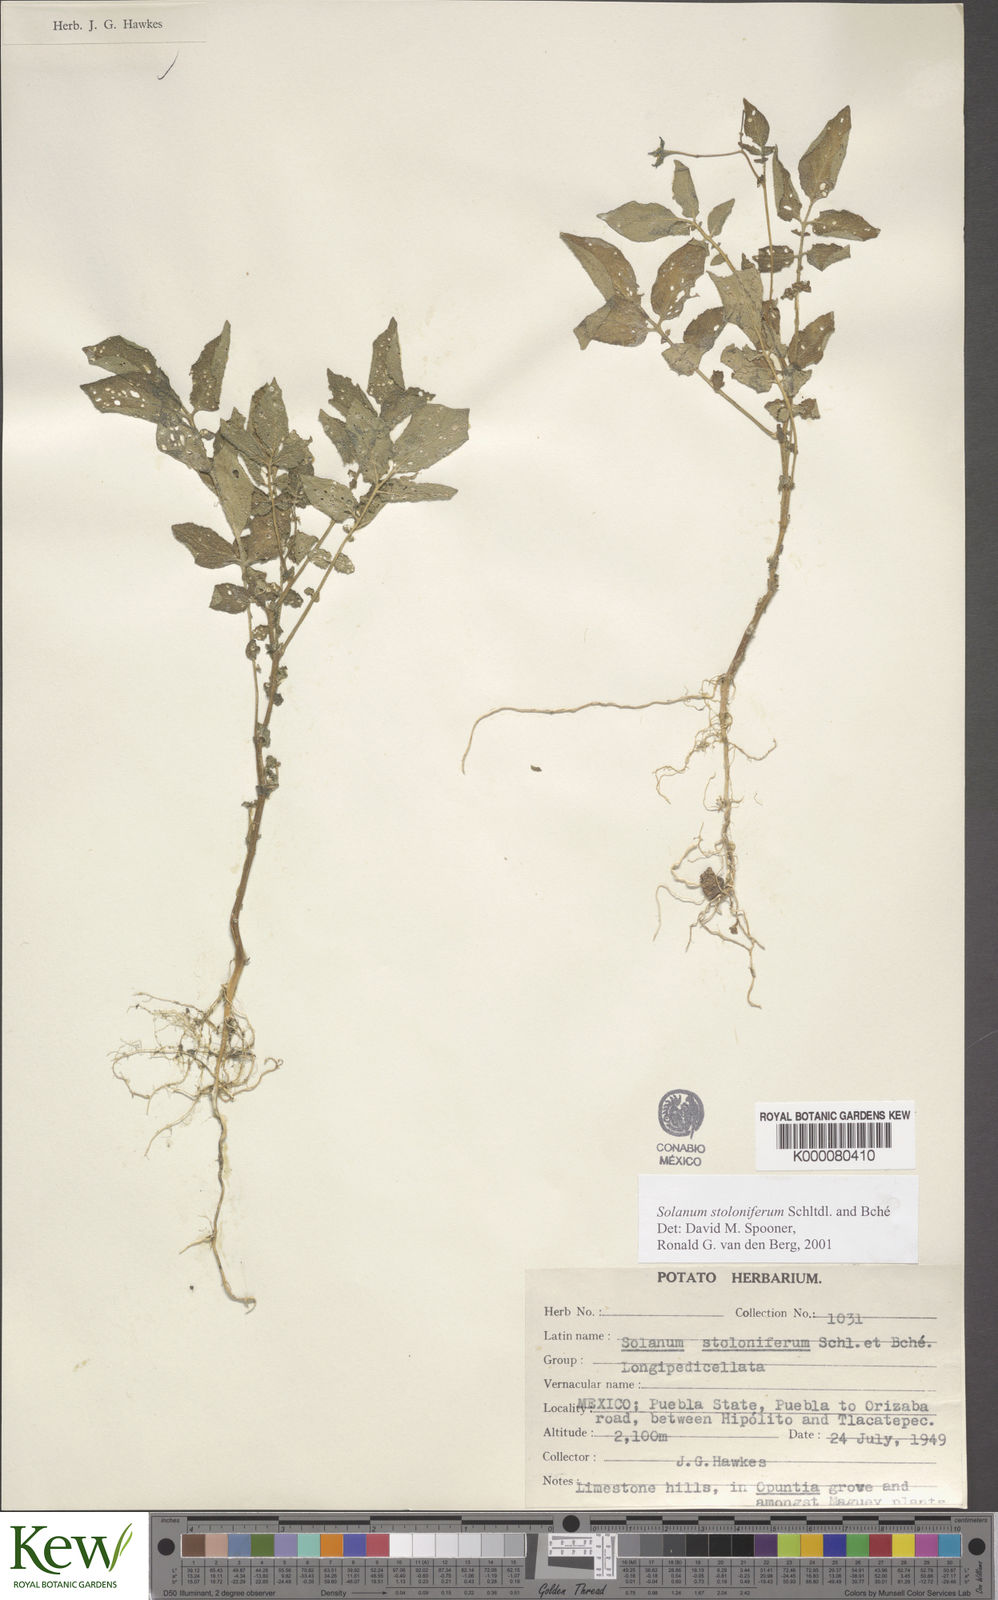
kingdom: Plantae
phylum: Tracheophyta
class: Magnoliopsida
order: Solanales
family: Solanaceae
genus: Solanum
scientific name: Solanum stoloniferum
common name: Fendler's nighshade
